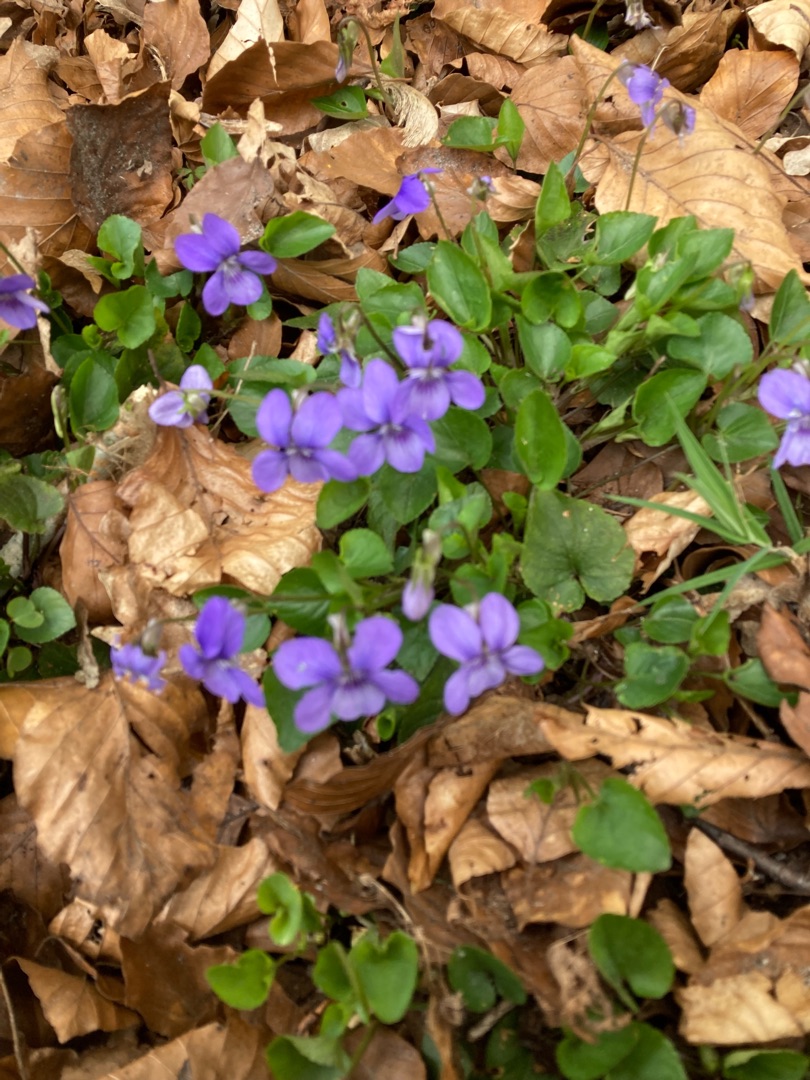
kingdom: Plantae
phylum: Tracheophyta
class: Magnoliopsida
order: Malpighiales
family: Violaceae
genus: Viola
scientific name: Viola
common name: Violslægten
